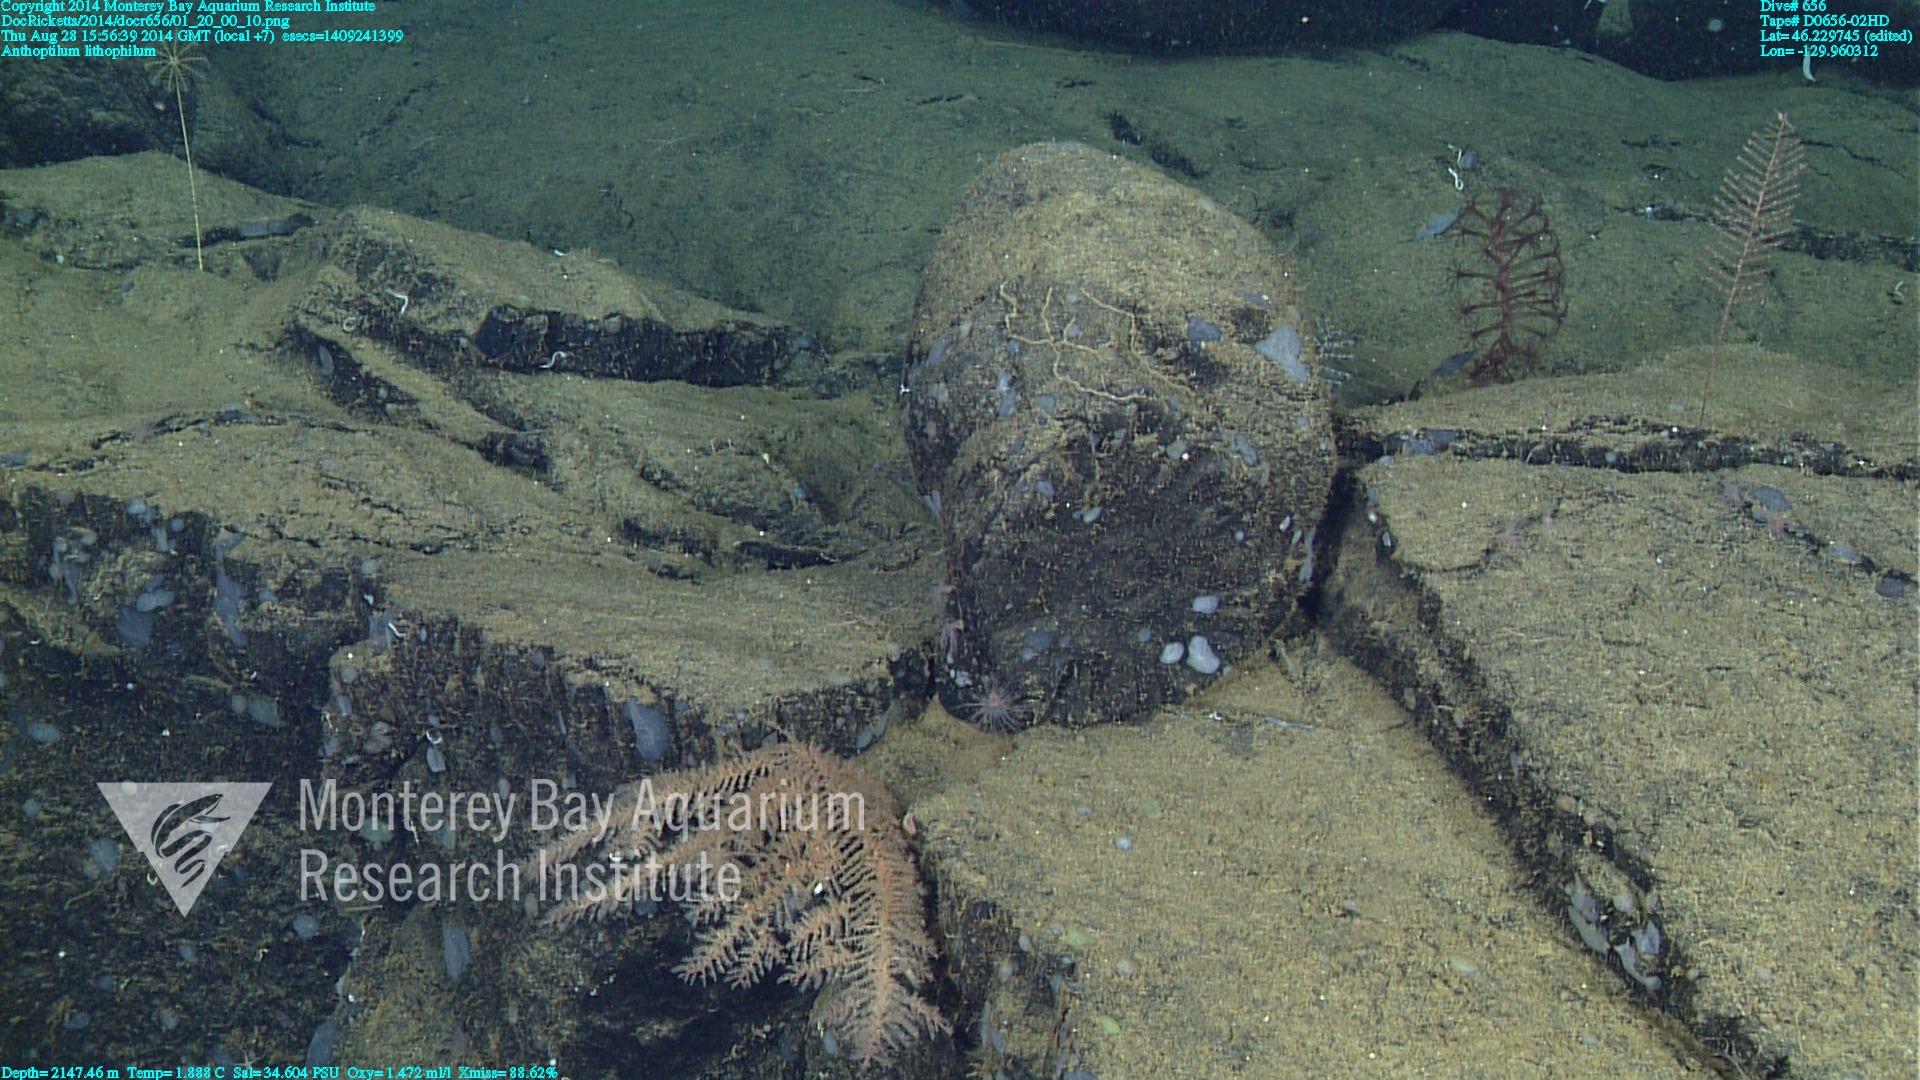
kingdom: Animalia
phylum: Cnidaria
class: Anthozoa
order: Scleralcyonacea
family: Anthoptilidae
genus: Anthoptilum
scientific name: Anthoptilum lithophilum
